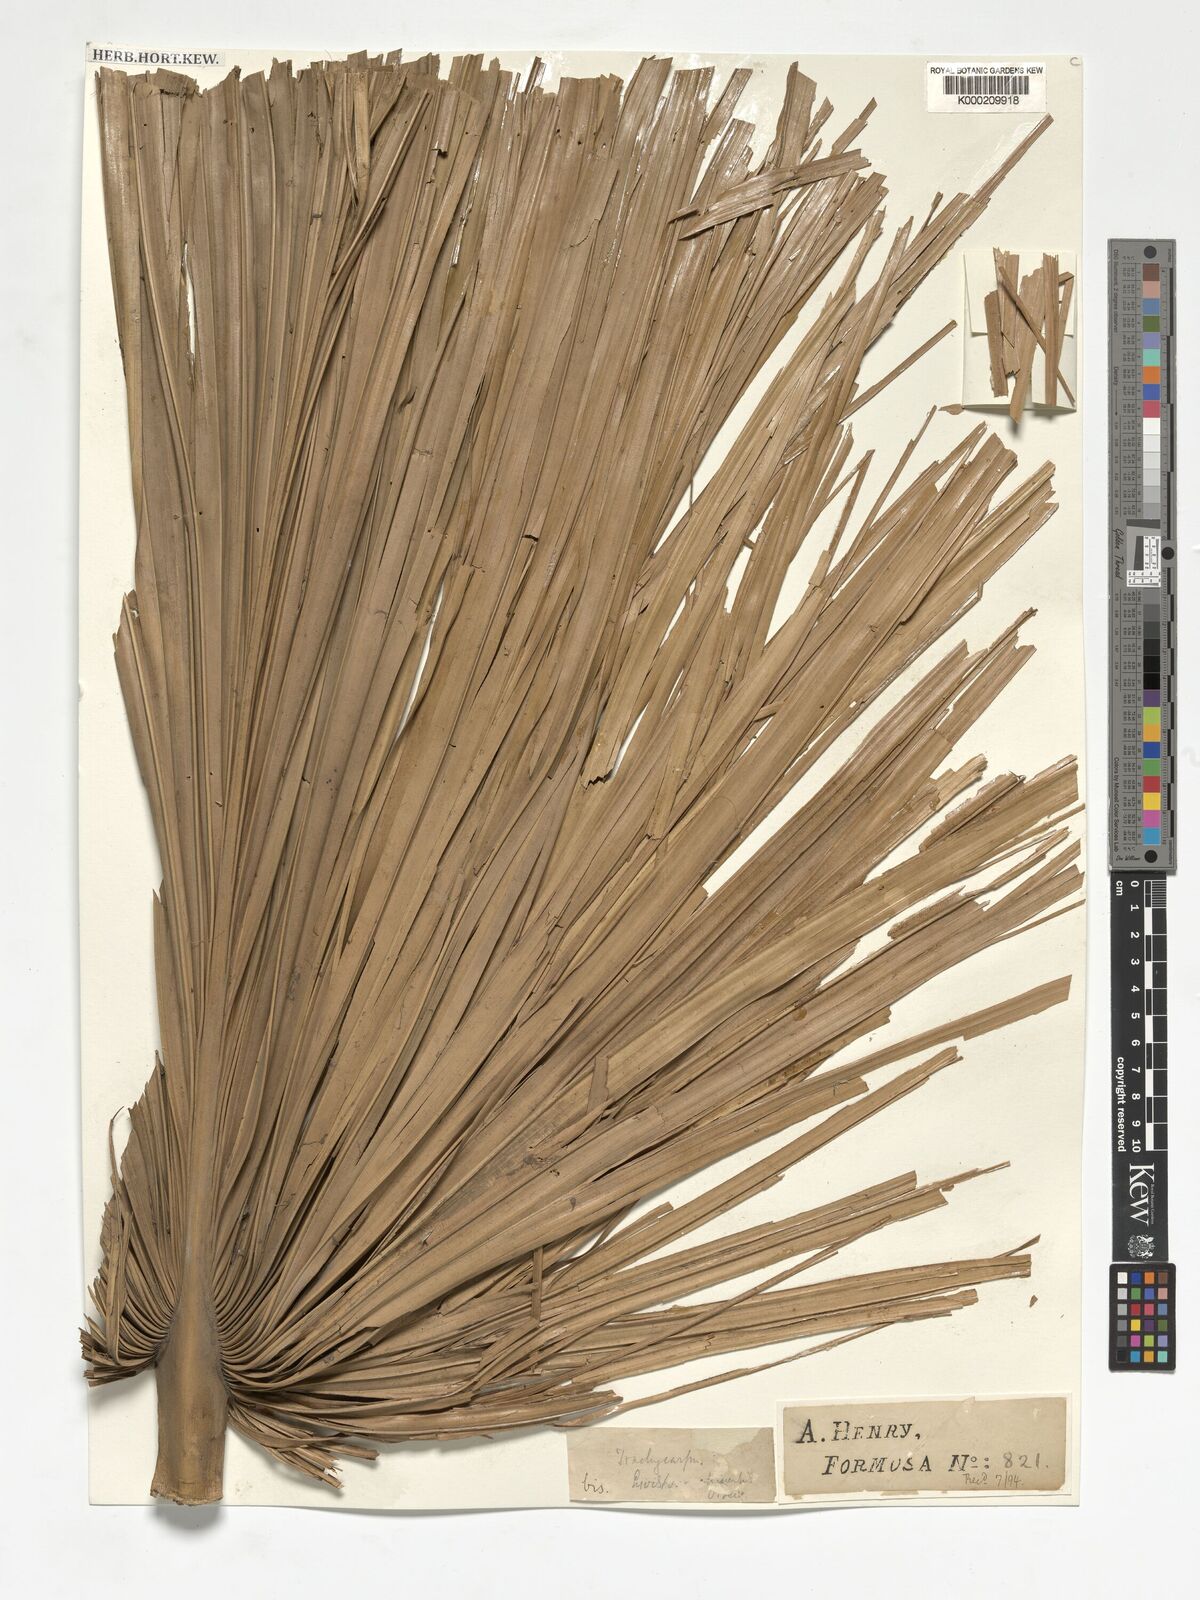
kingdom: Plantae
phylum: Tracheophyta
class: Liliopsida
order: Arecales
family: Arecaceae
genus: Livistona
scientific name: Livistona chinensis
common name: Fountain palm
